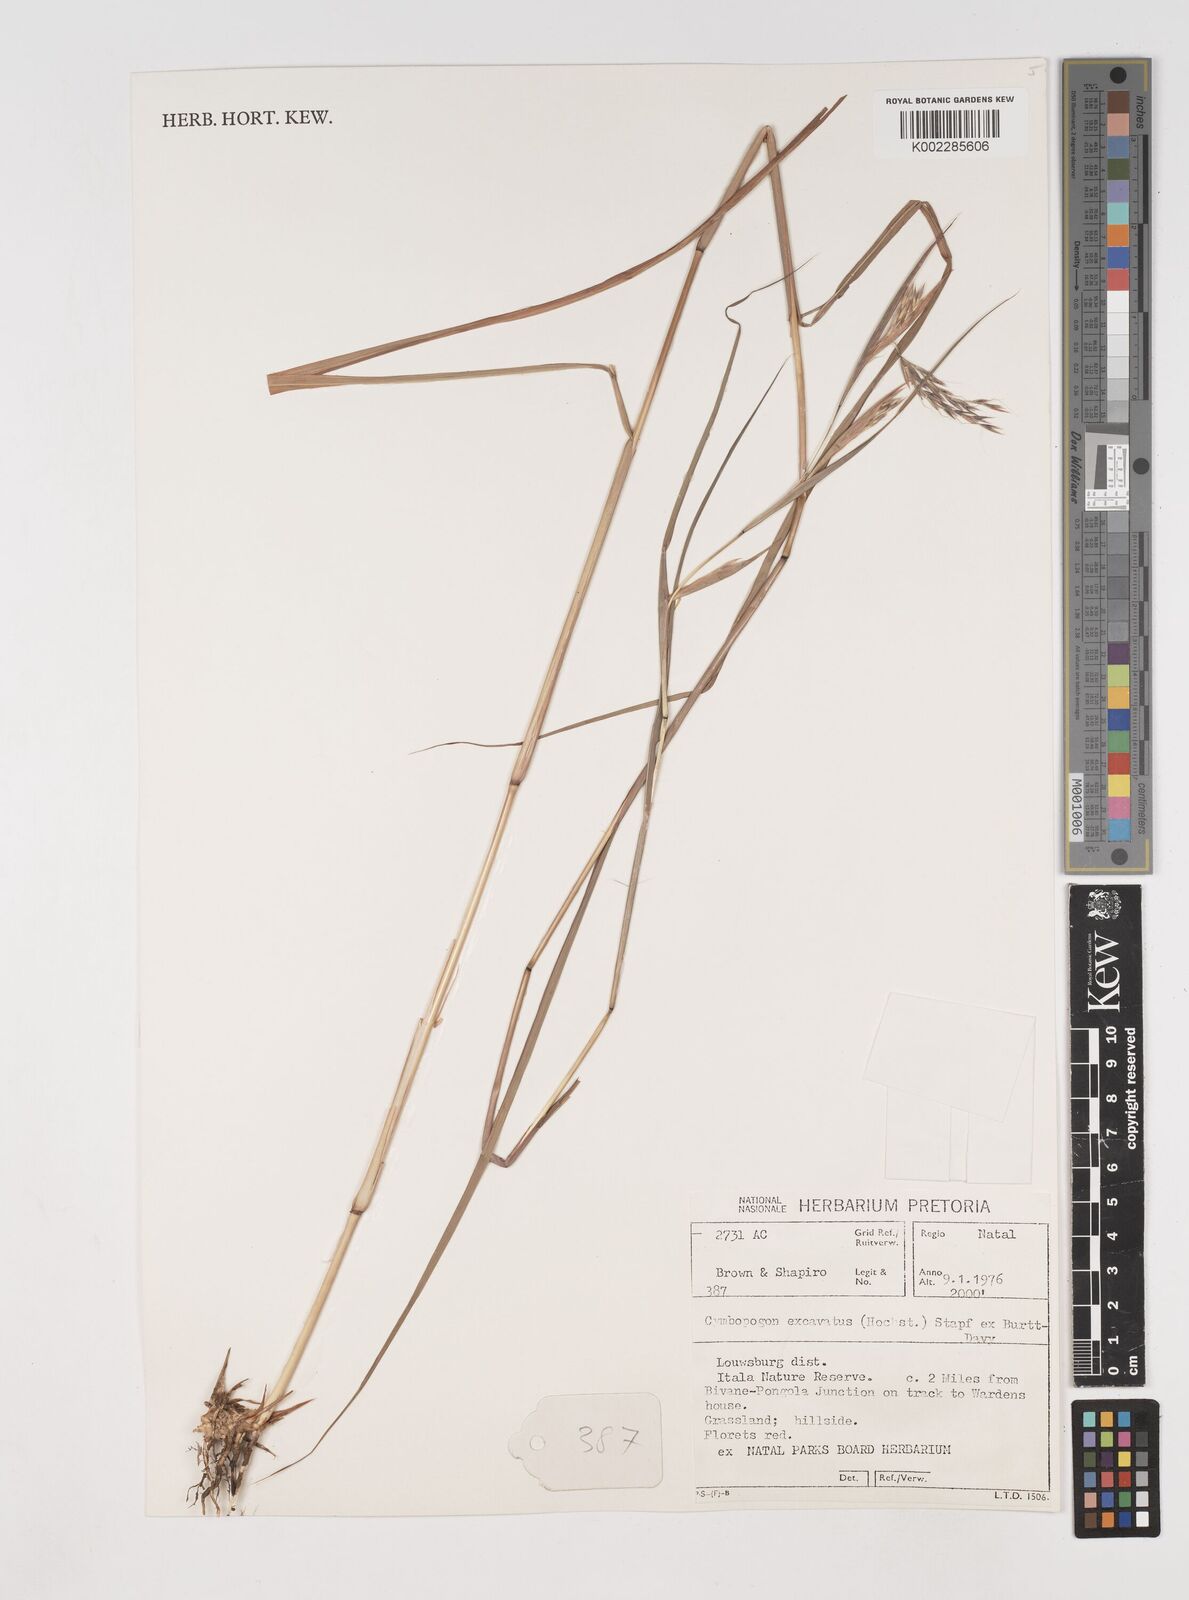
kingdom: Plantae
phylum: Tracheophyta
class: Liliopsida
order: Poales
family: Poaceae
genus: Cymbopogon
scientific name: Cymbopogon caesius
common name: Kachi grass
